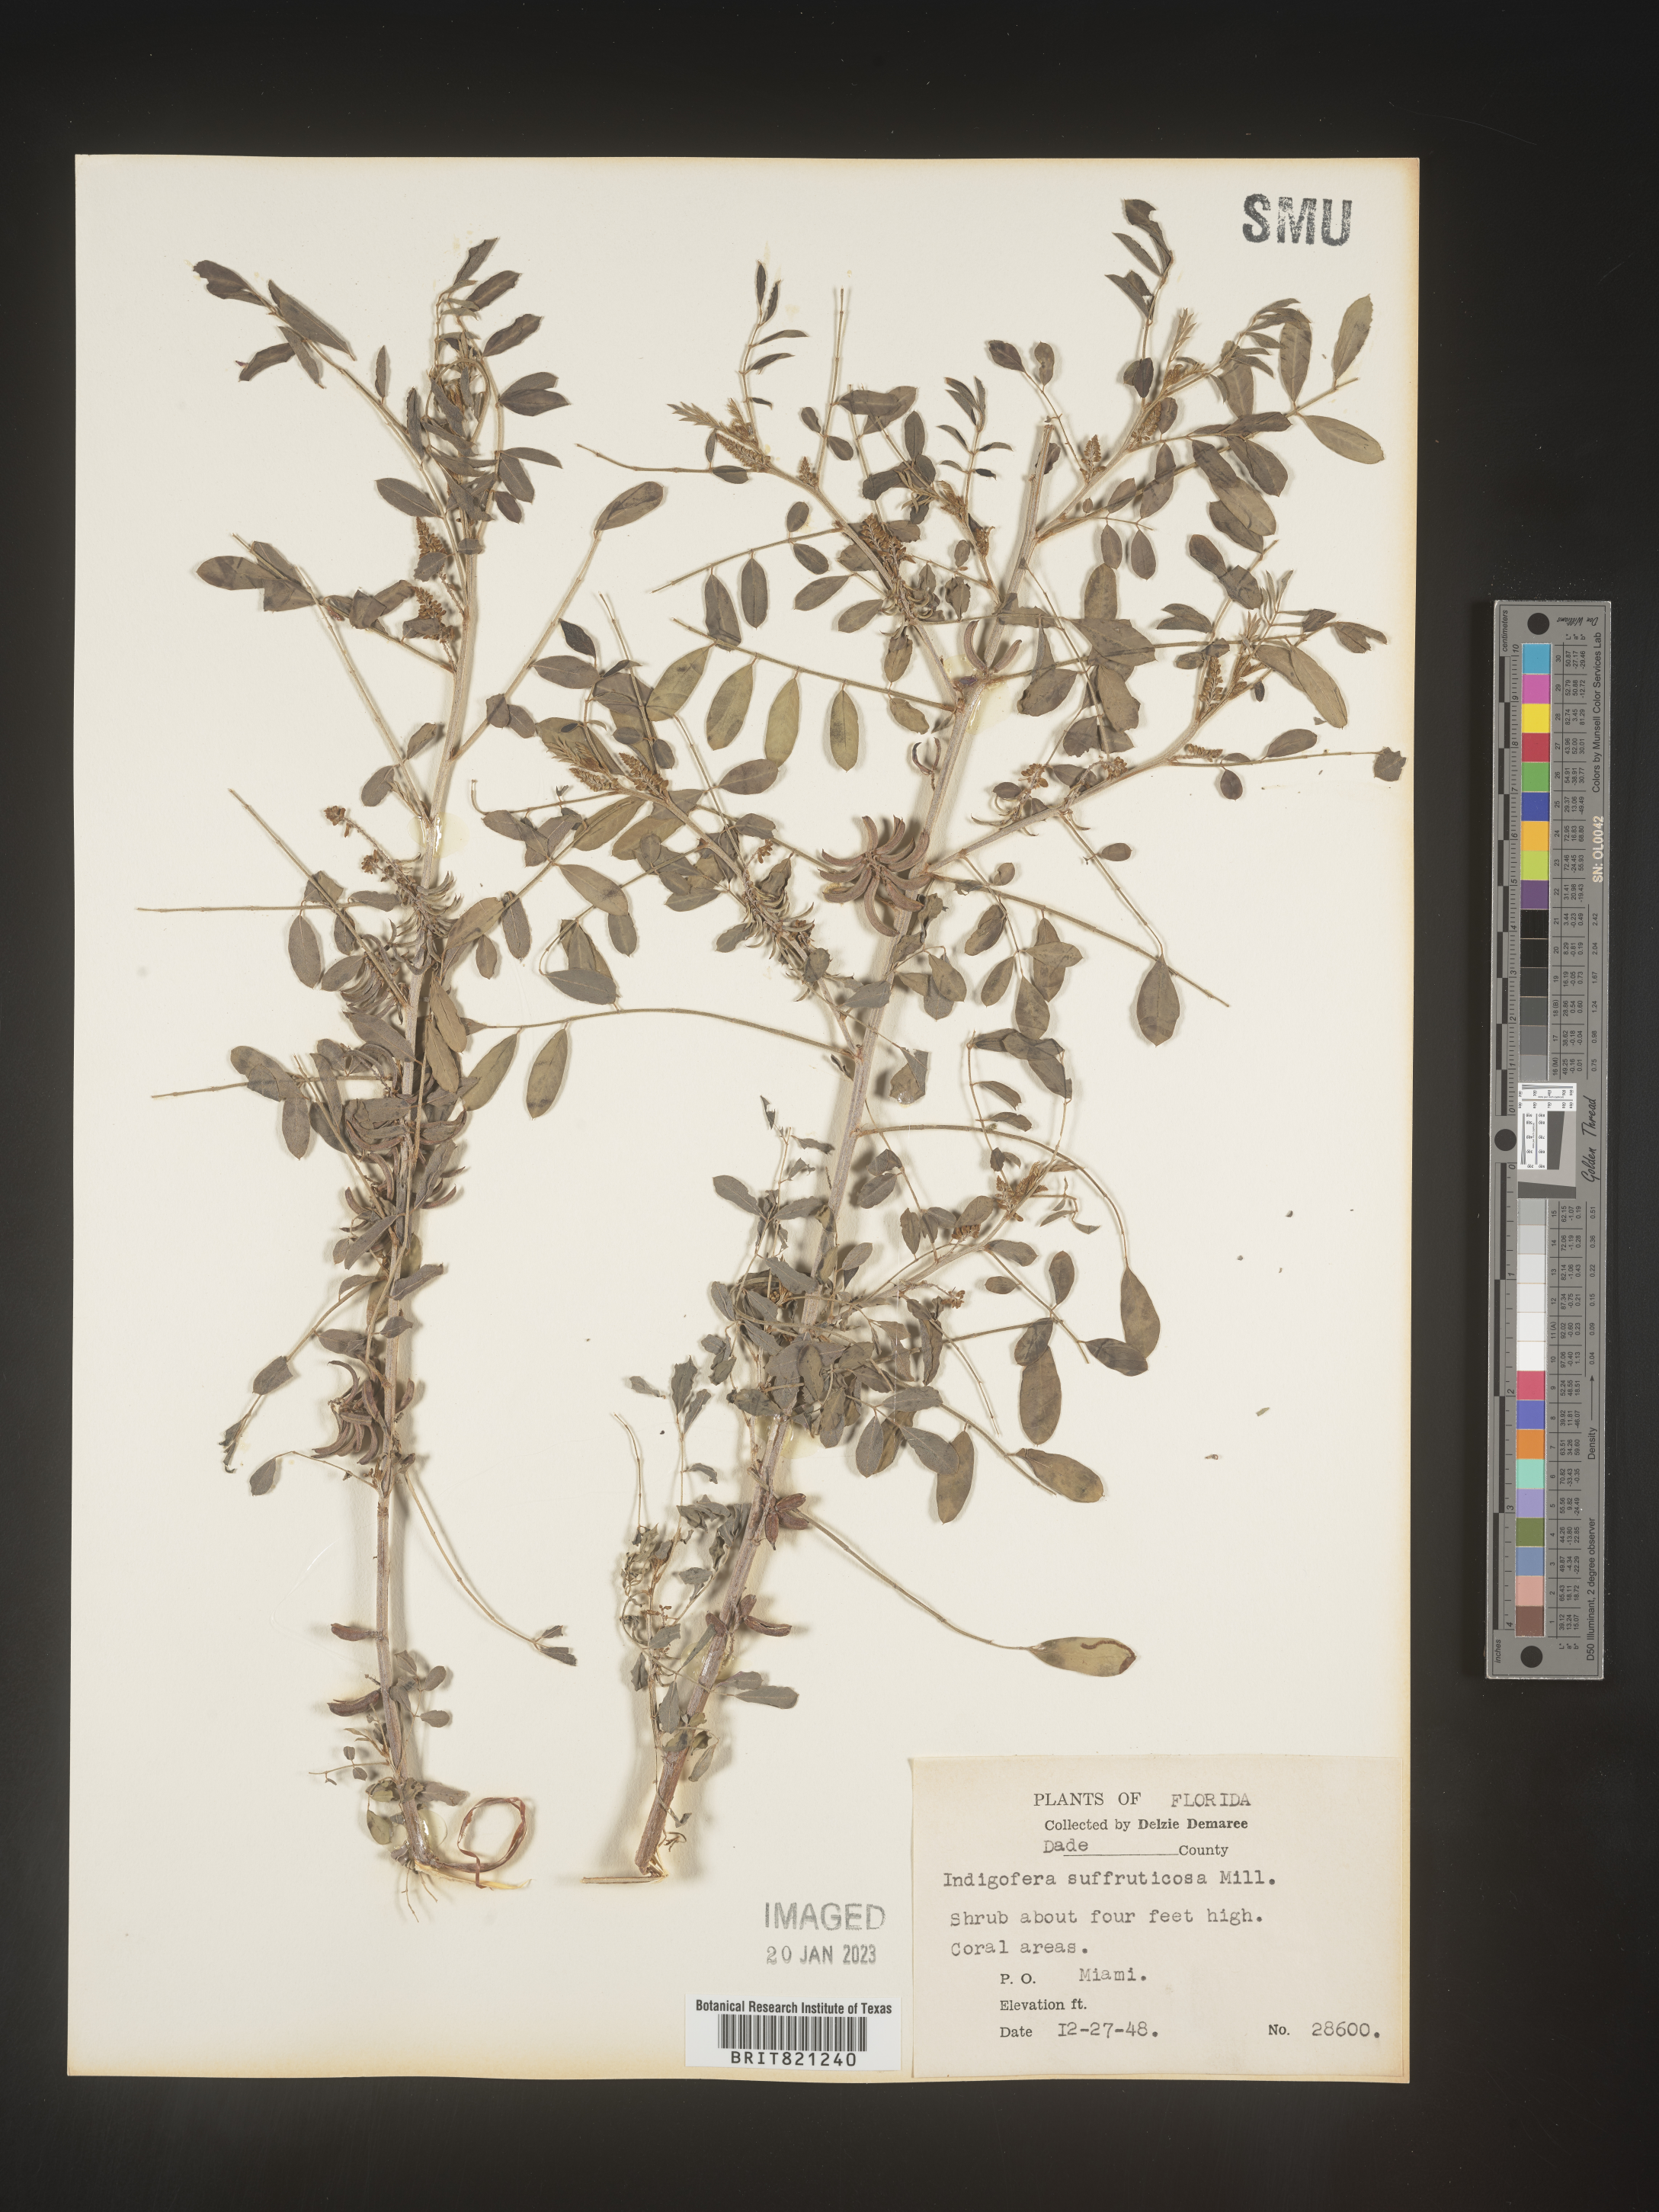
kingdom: Plantae
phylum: Tracheophyta
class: Magnoliopsida
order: Fabales
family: Fabaceae
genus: Indigofera
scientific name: Indigofera
